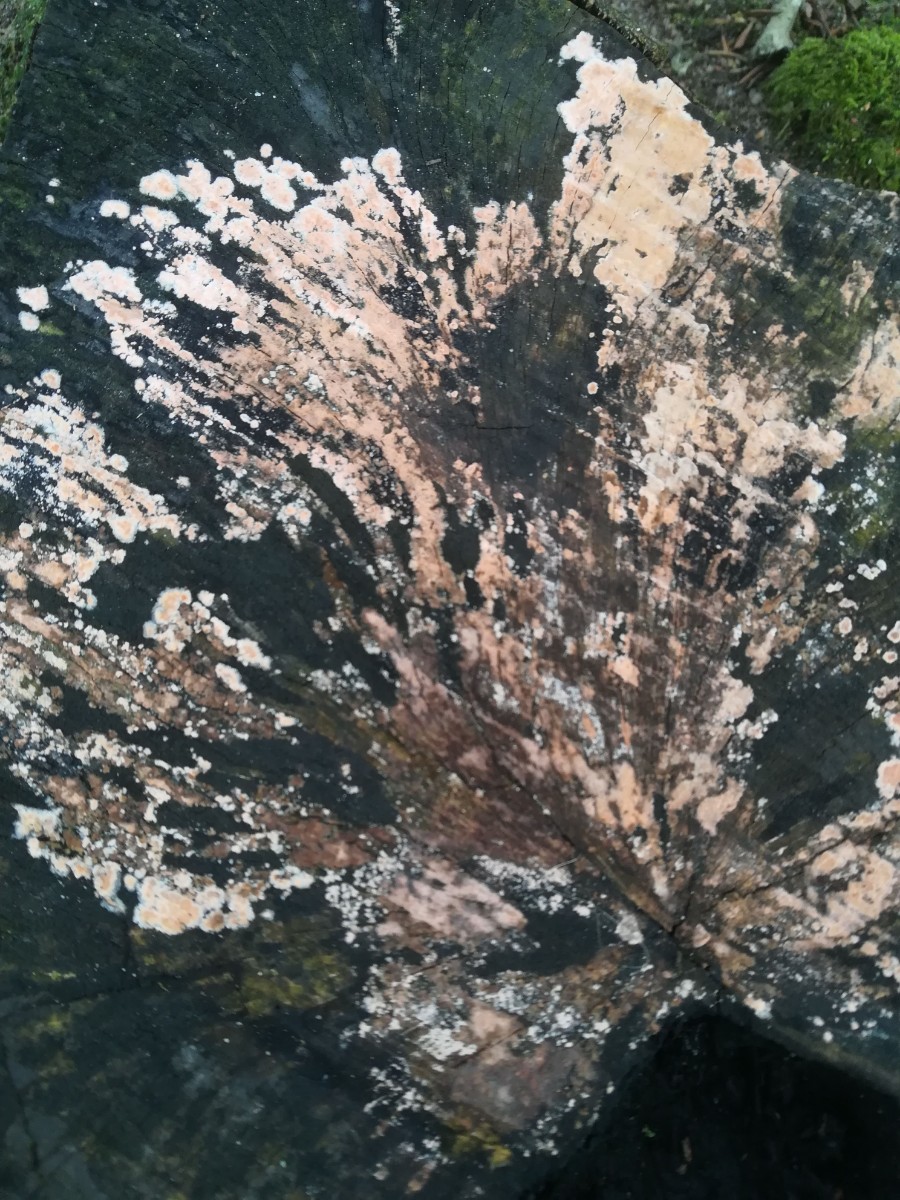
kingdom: Fungi
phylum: Basidiomycota
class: Agaricomycetes
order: Russulales
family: Peniophoraceae
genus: Peniophora
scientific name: Peniophora incarnata
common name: laksefarvet voksskind
